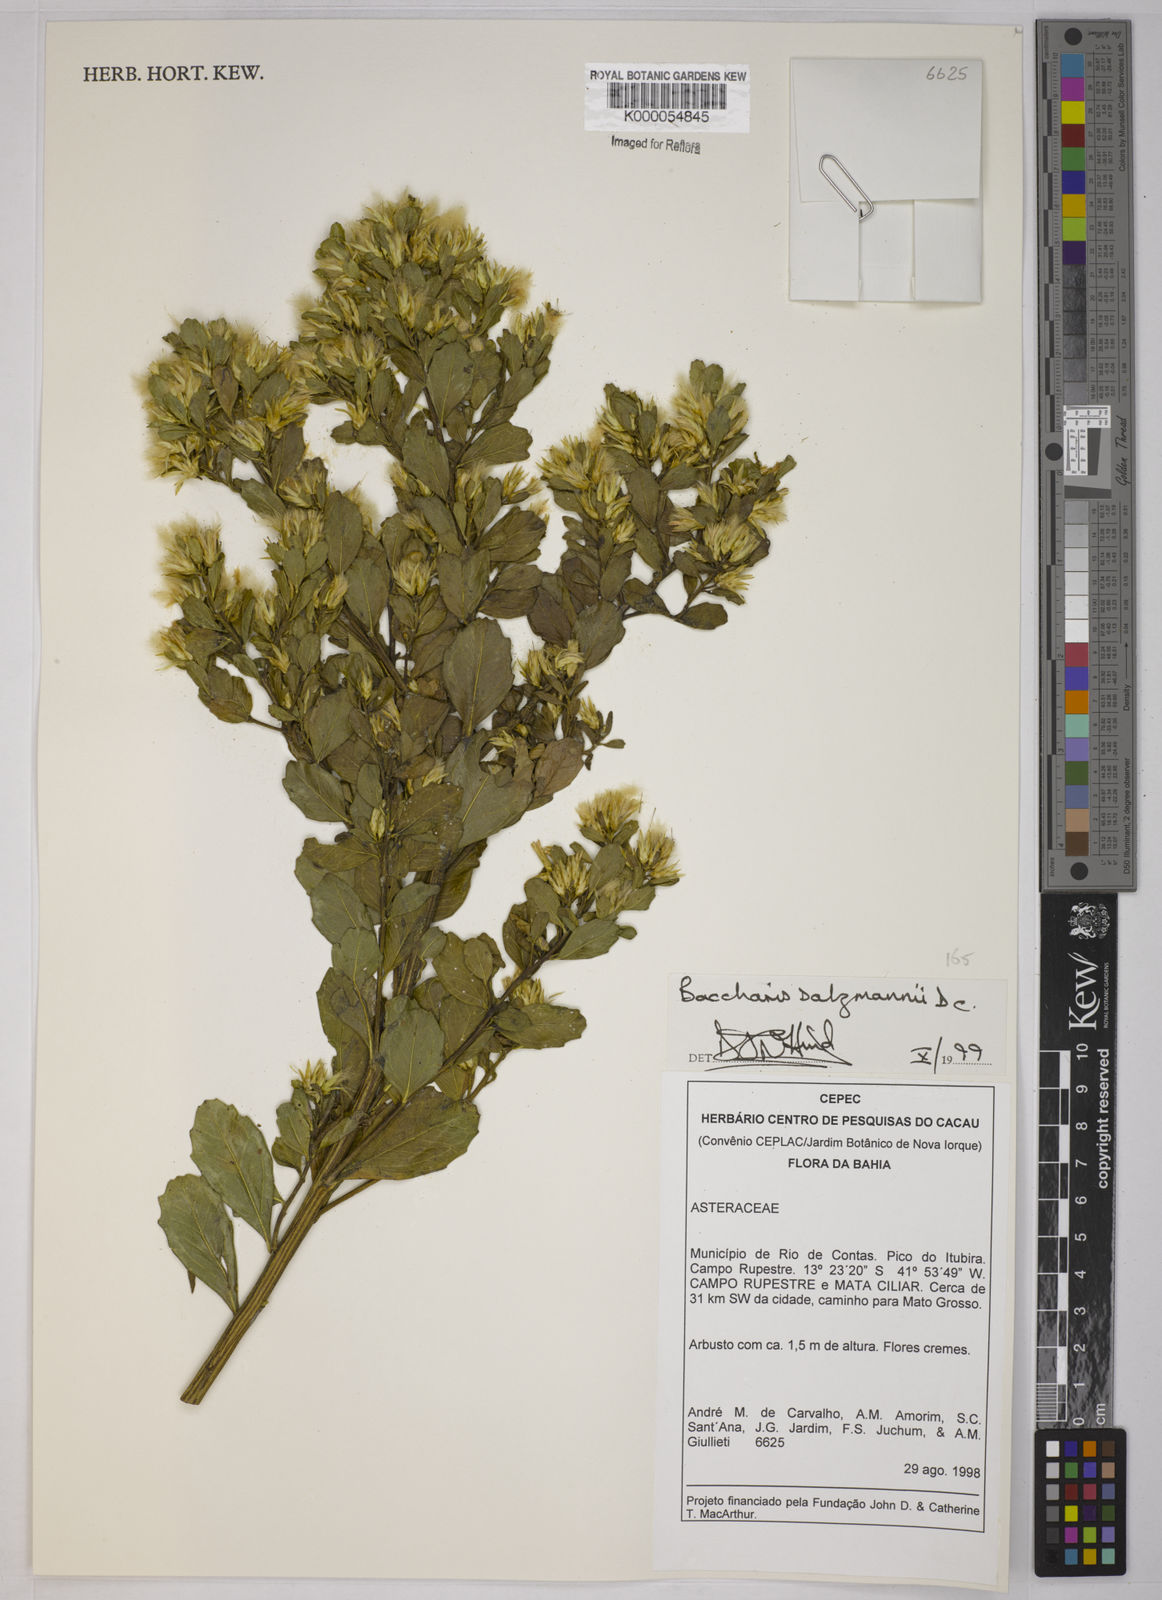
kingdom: Plantae
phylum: Tracheophyta
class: Magnoliopsida
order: Asterales
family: Asteraceae
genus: Baccharis
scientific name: Baccharis retusa
